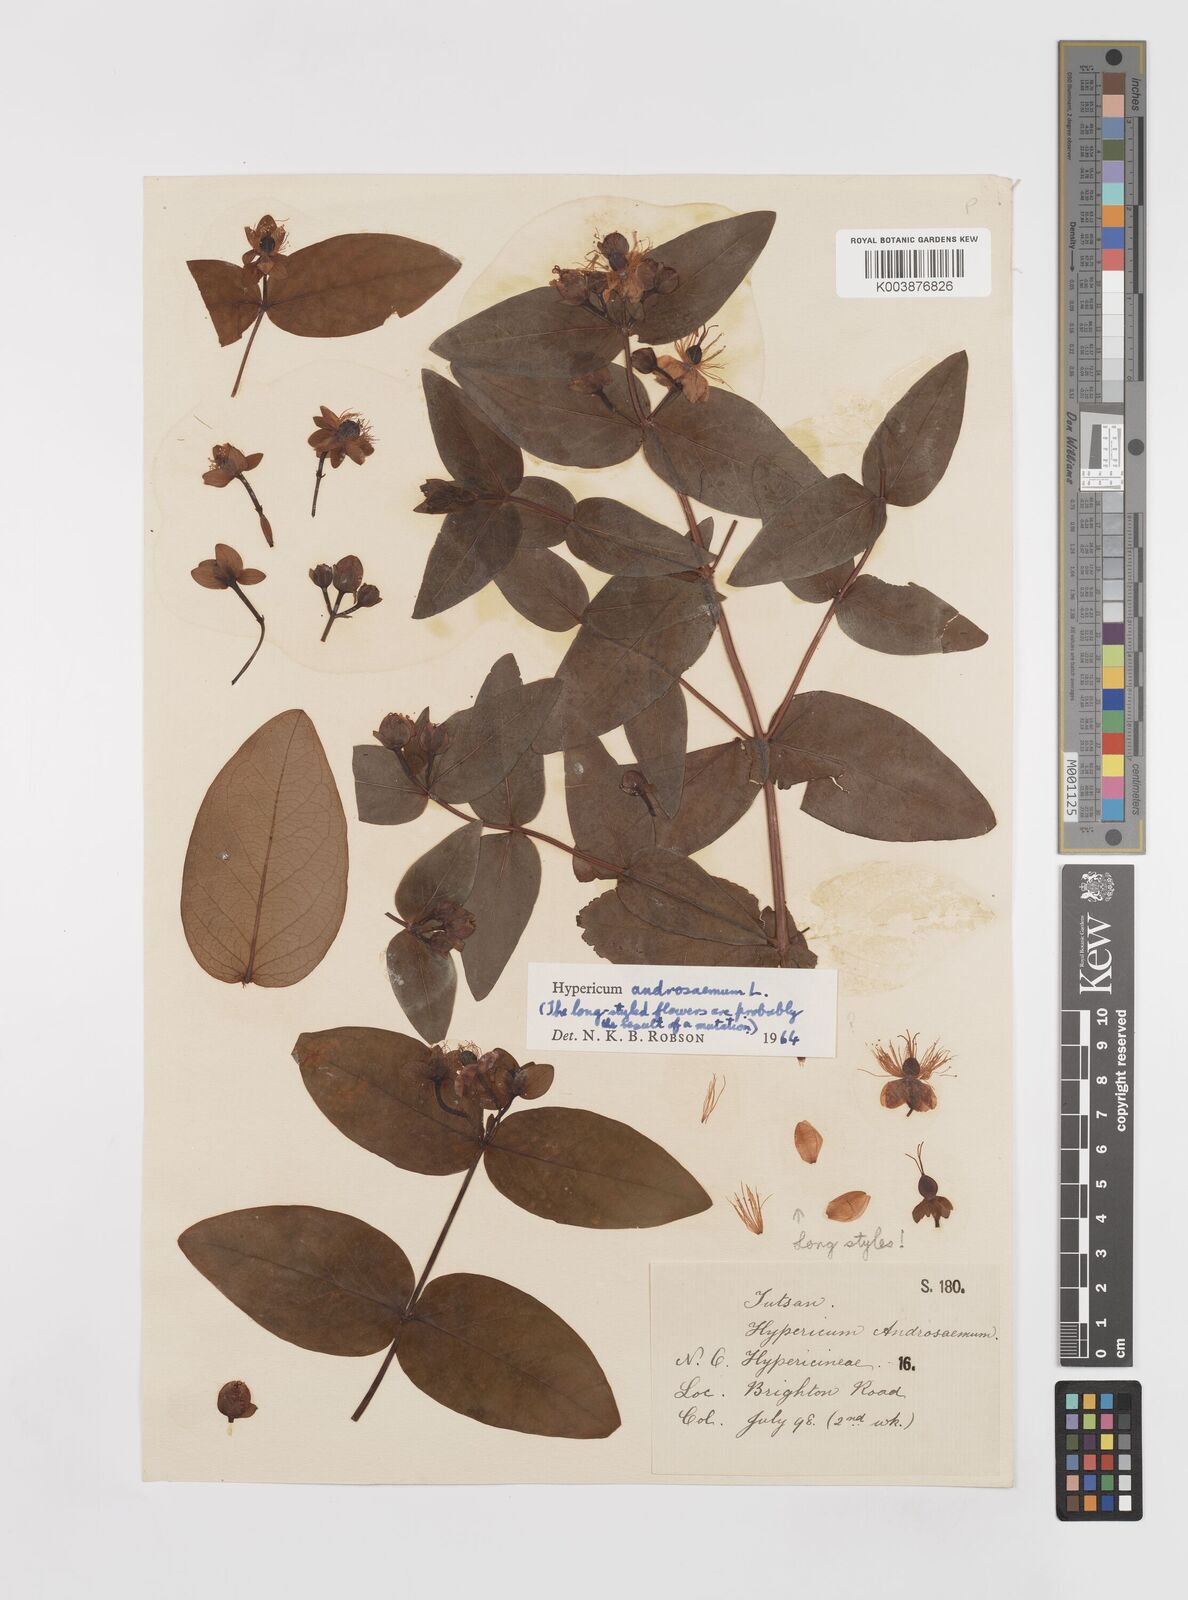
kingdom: Plantae
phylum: Tracheophyta
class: Magnoliopsida
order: Malpighiales
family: Hypericaceae
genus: Hypericum
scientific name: Hypericum androsaemum
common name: Sweet-amber
